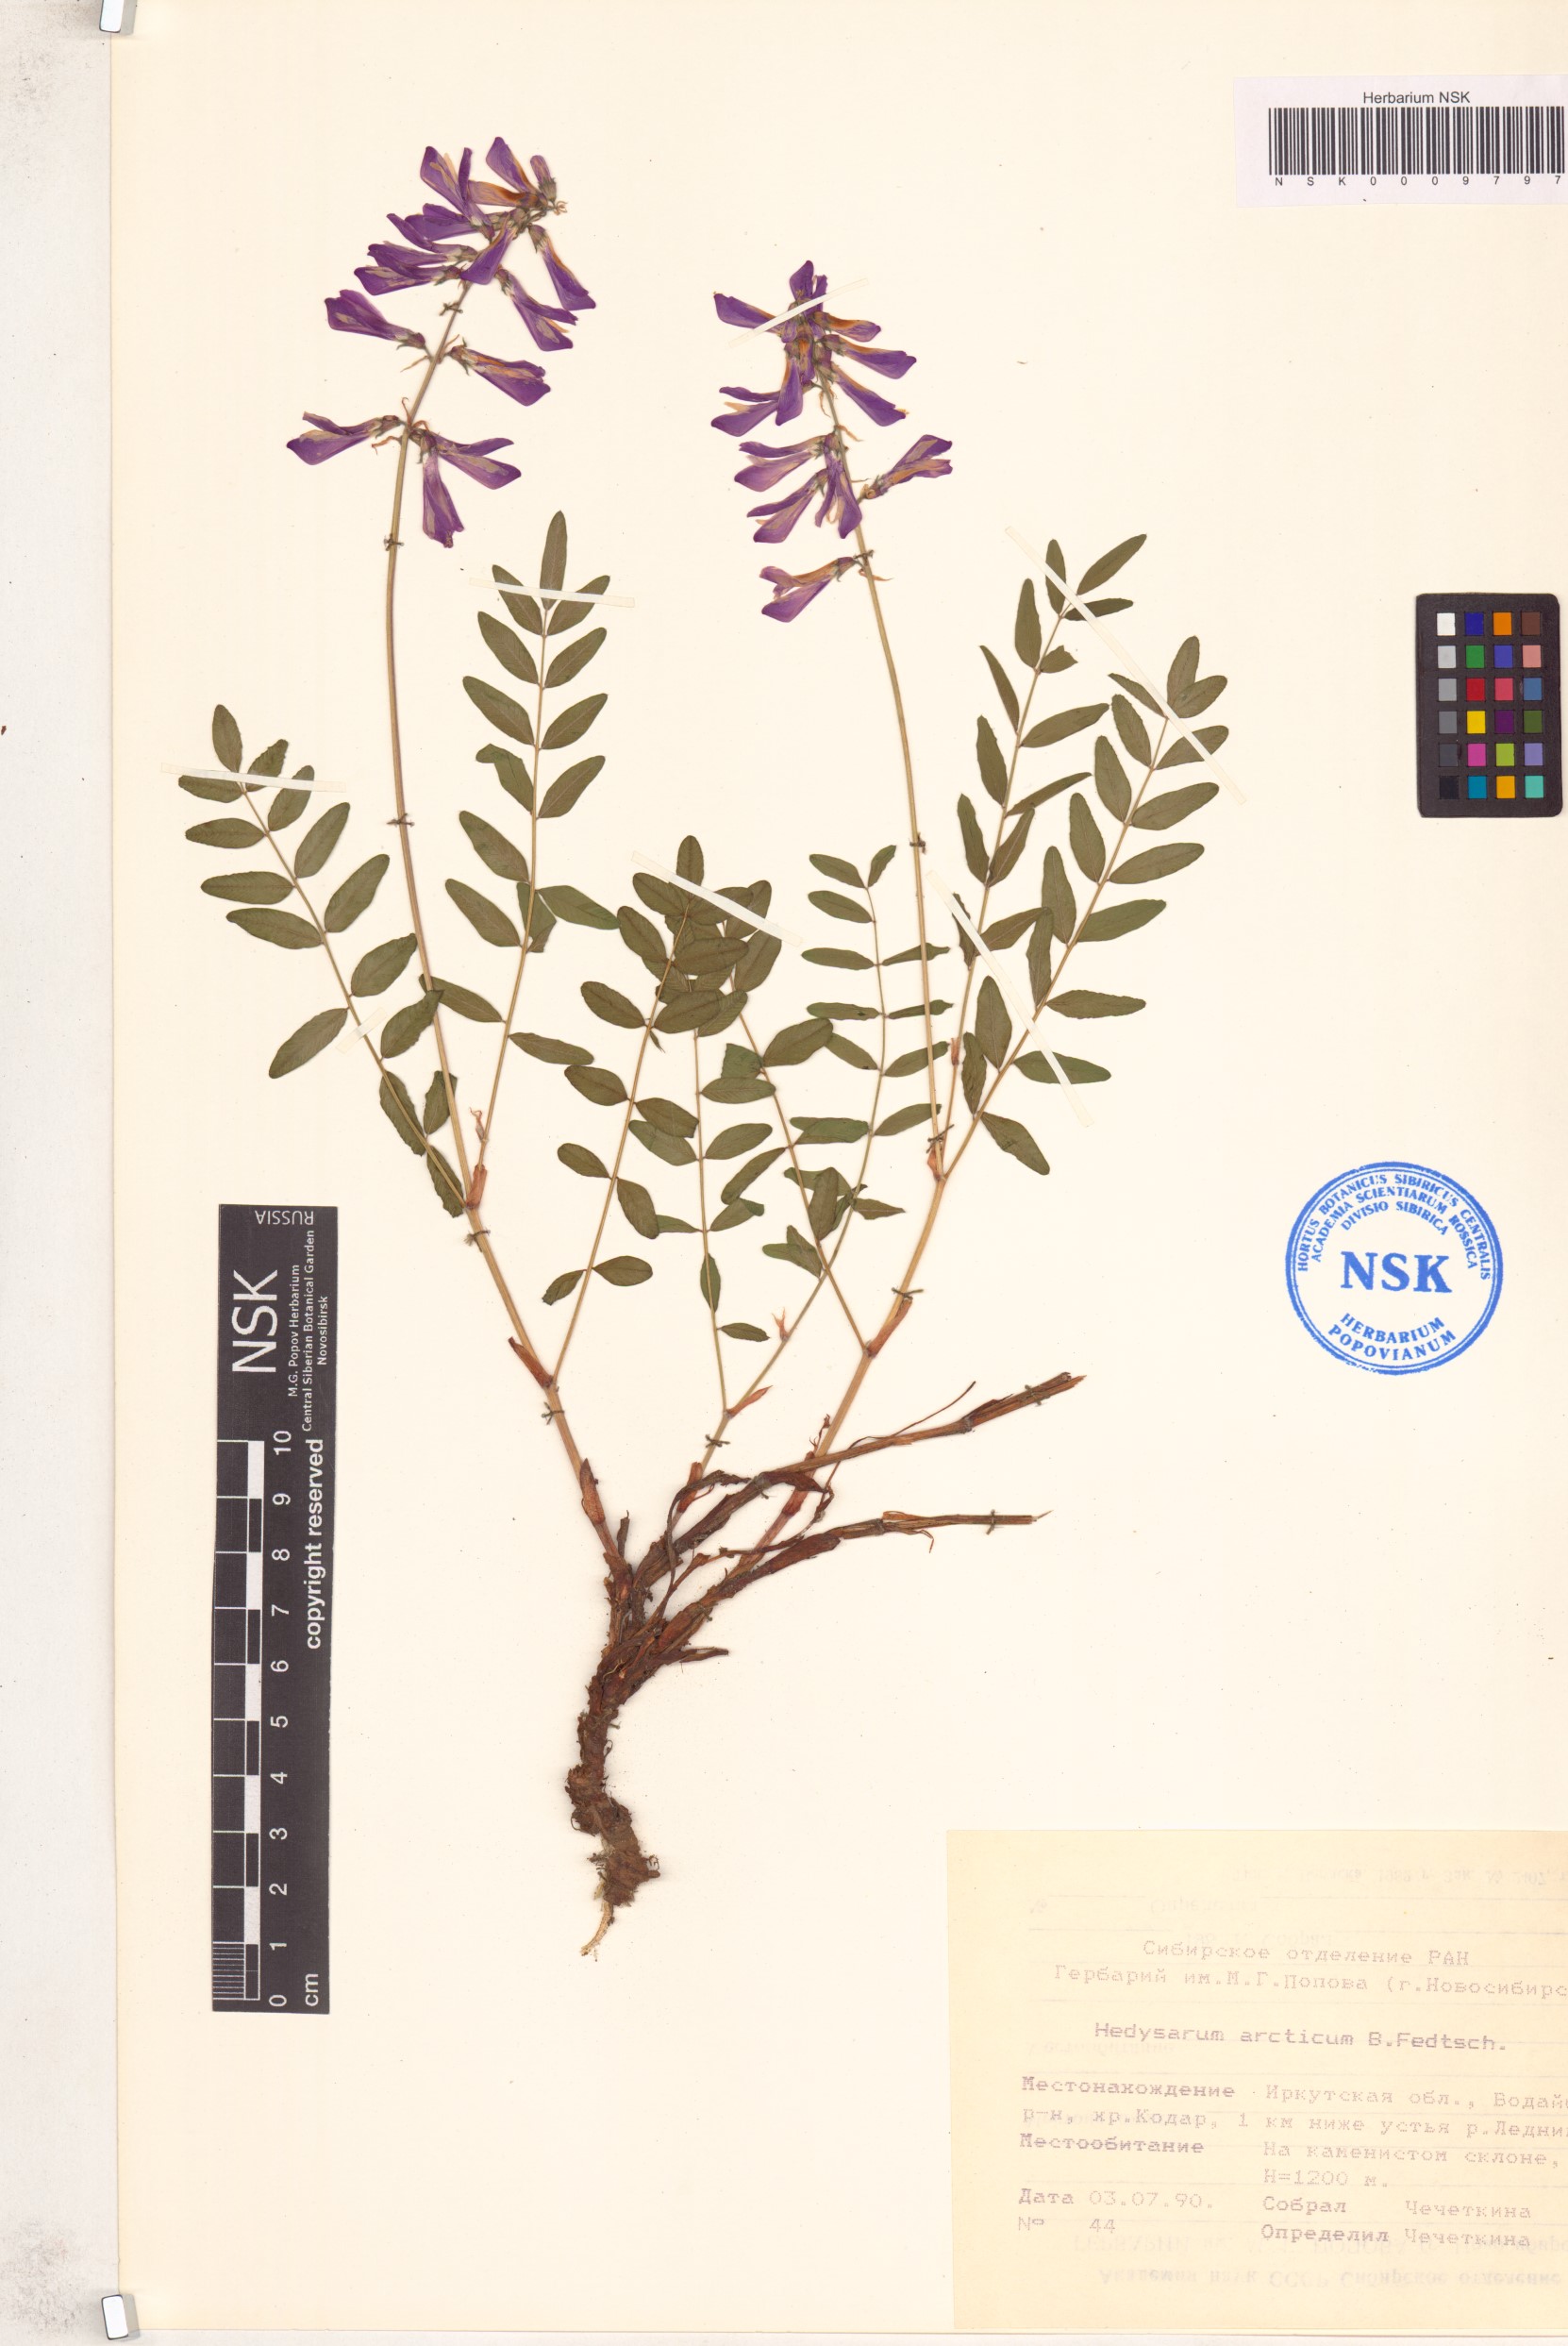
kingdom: Plantae
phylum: Tracheophyta
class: Magnoliopsida
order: Fabales
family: Fabaceae
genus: Hedysarum
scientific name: Hedysarum hedysaroides
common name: Alpine french-honeysuckle
